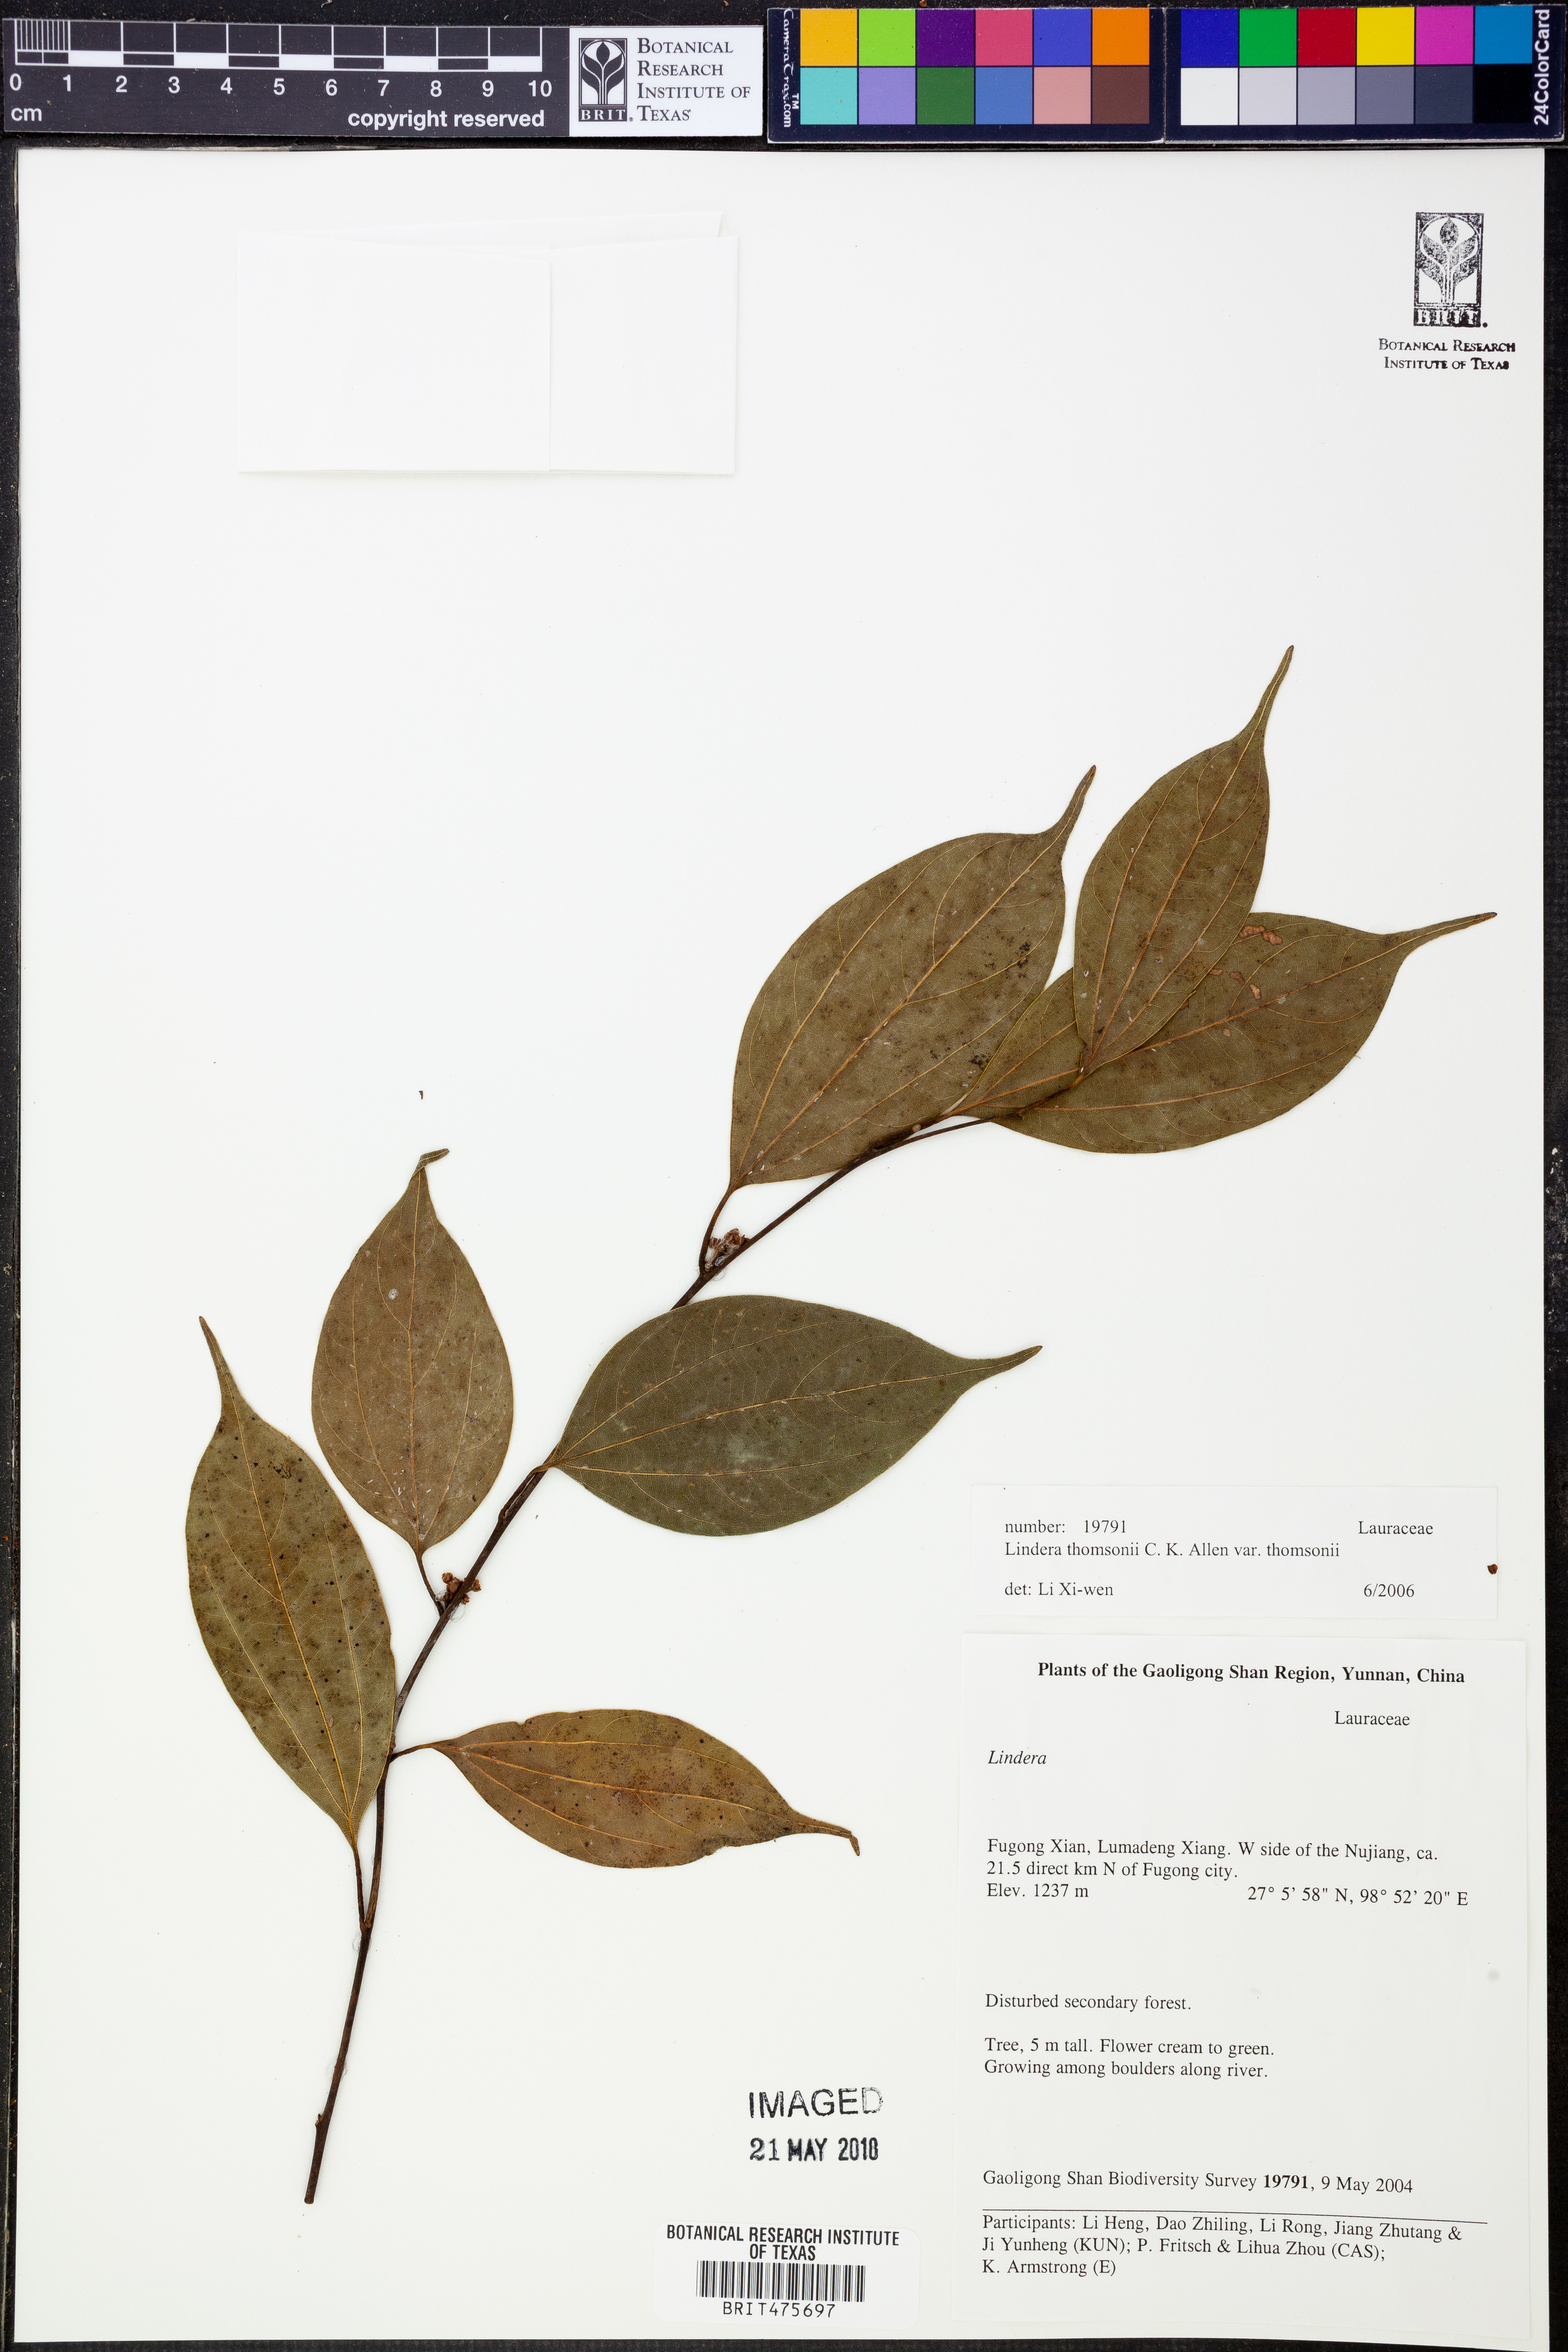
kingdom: Plantae
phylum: Tracheophyta
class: Magnoliopsida
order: Laurales
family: Lauraceae
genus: Lindera
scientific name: Lindera thomsonii
